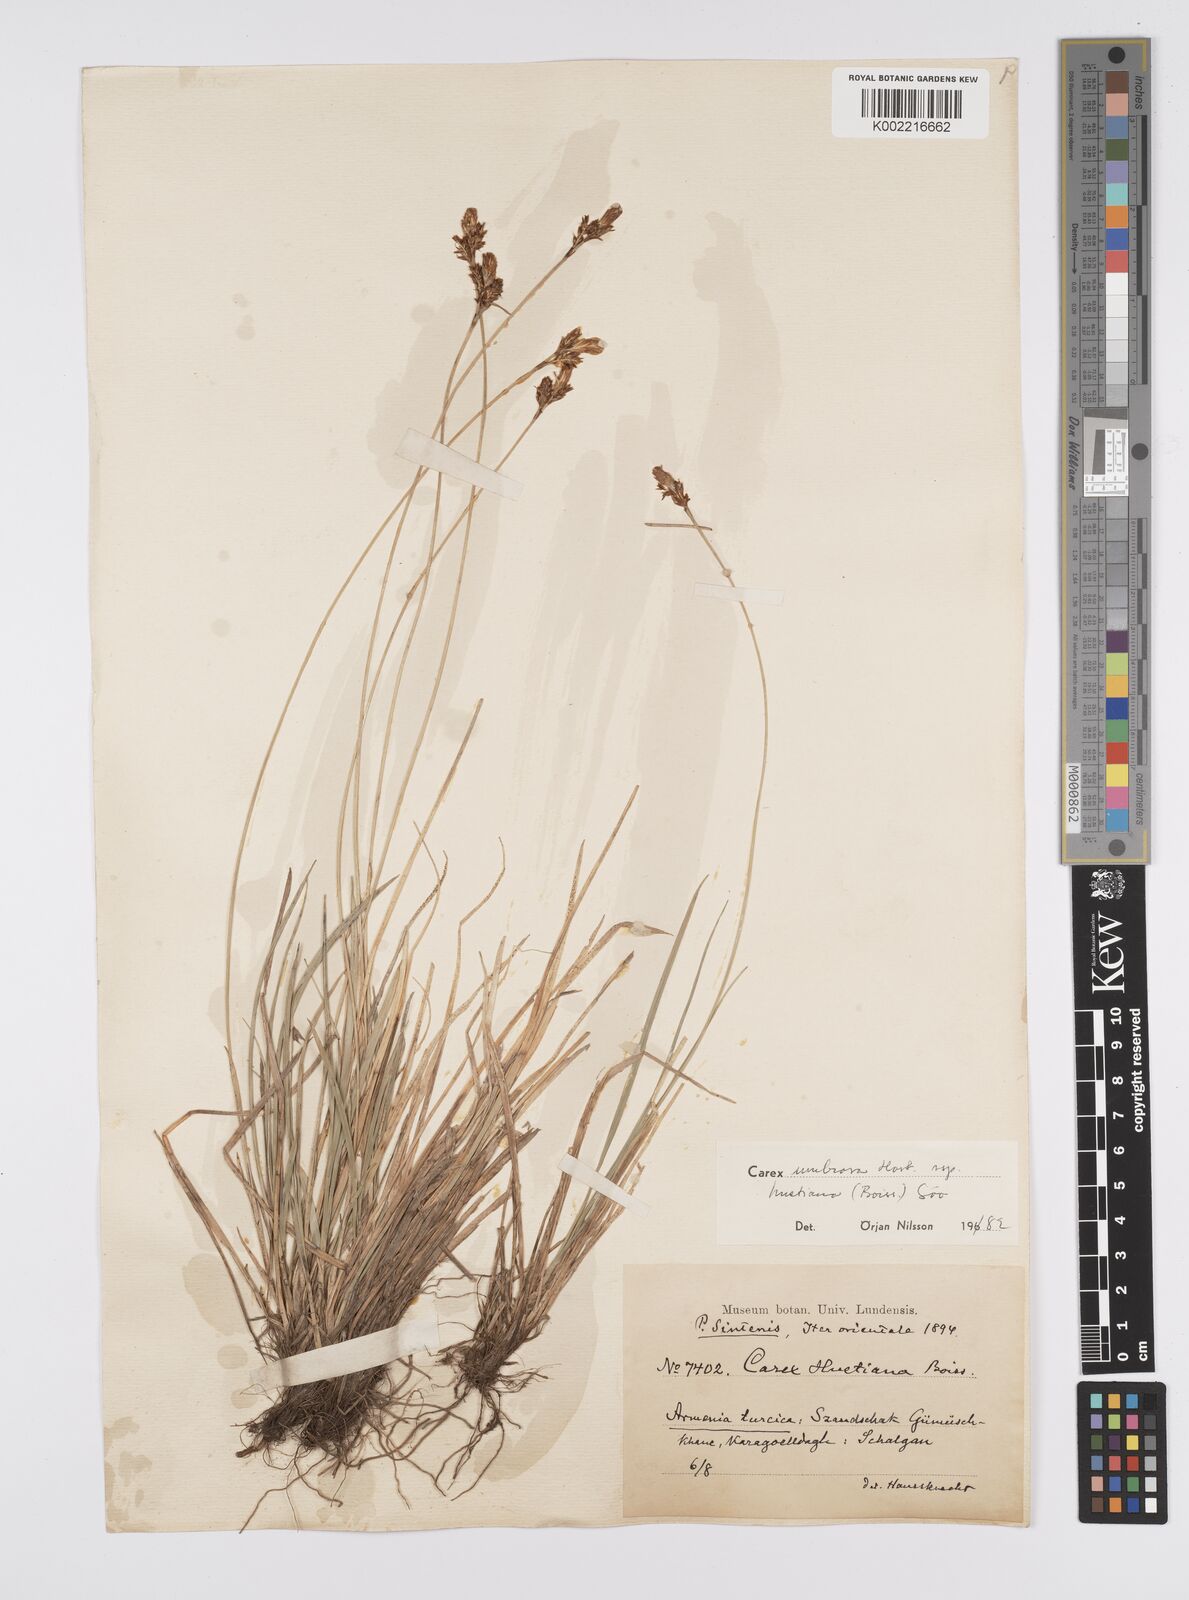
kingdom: Plantae
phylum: Tracheophyta
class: Liliopsida
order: Poales
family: Cyperaceae
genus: Carex
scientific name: Carex umbrosa
